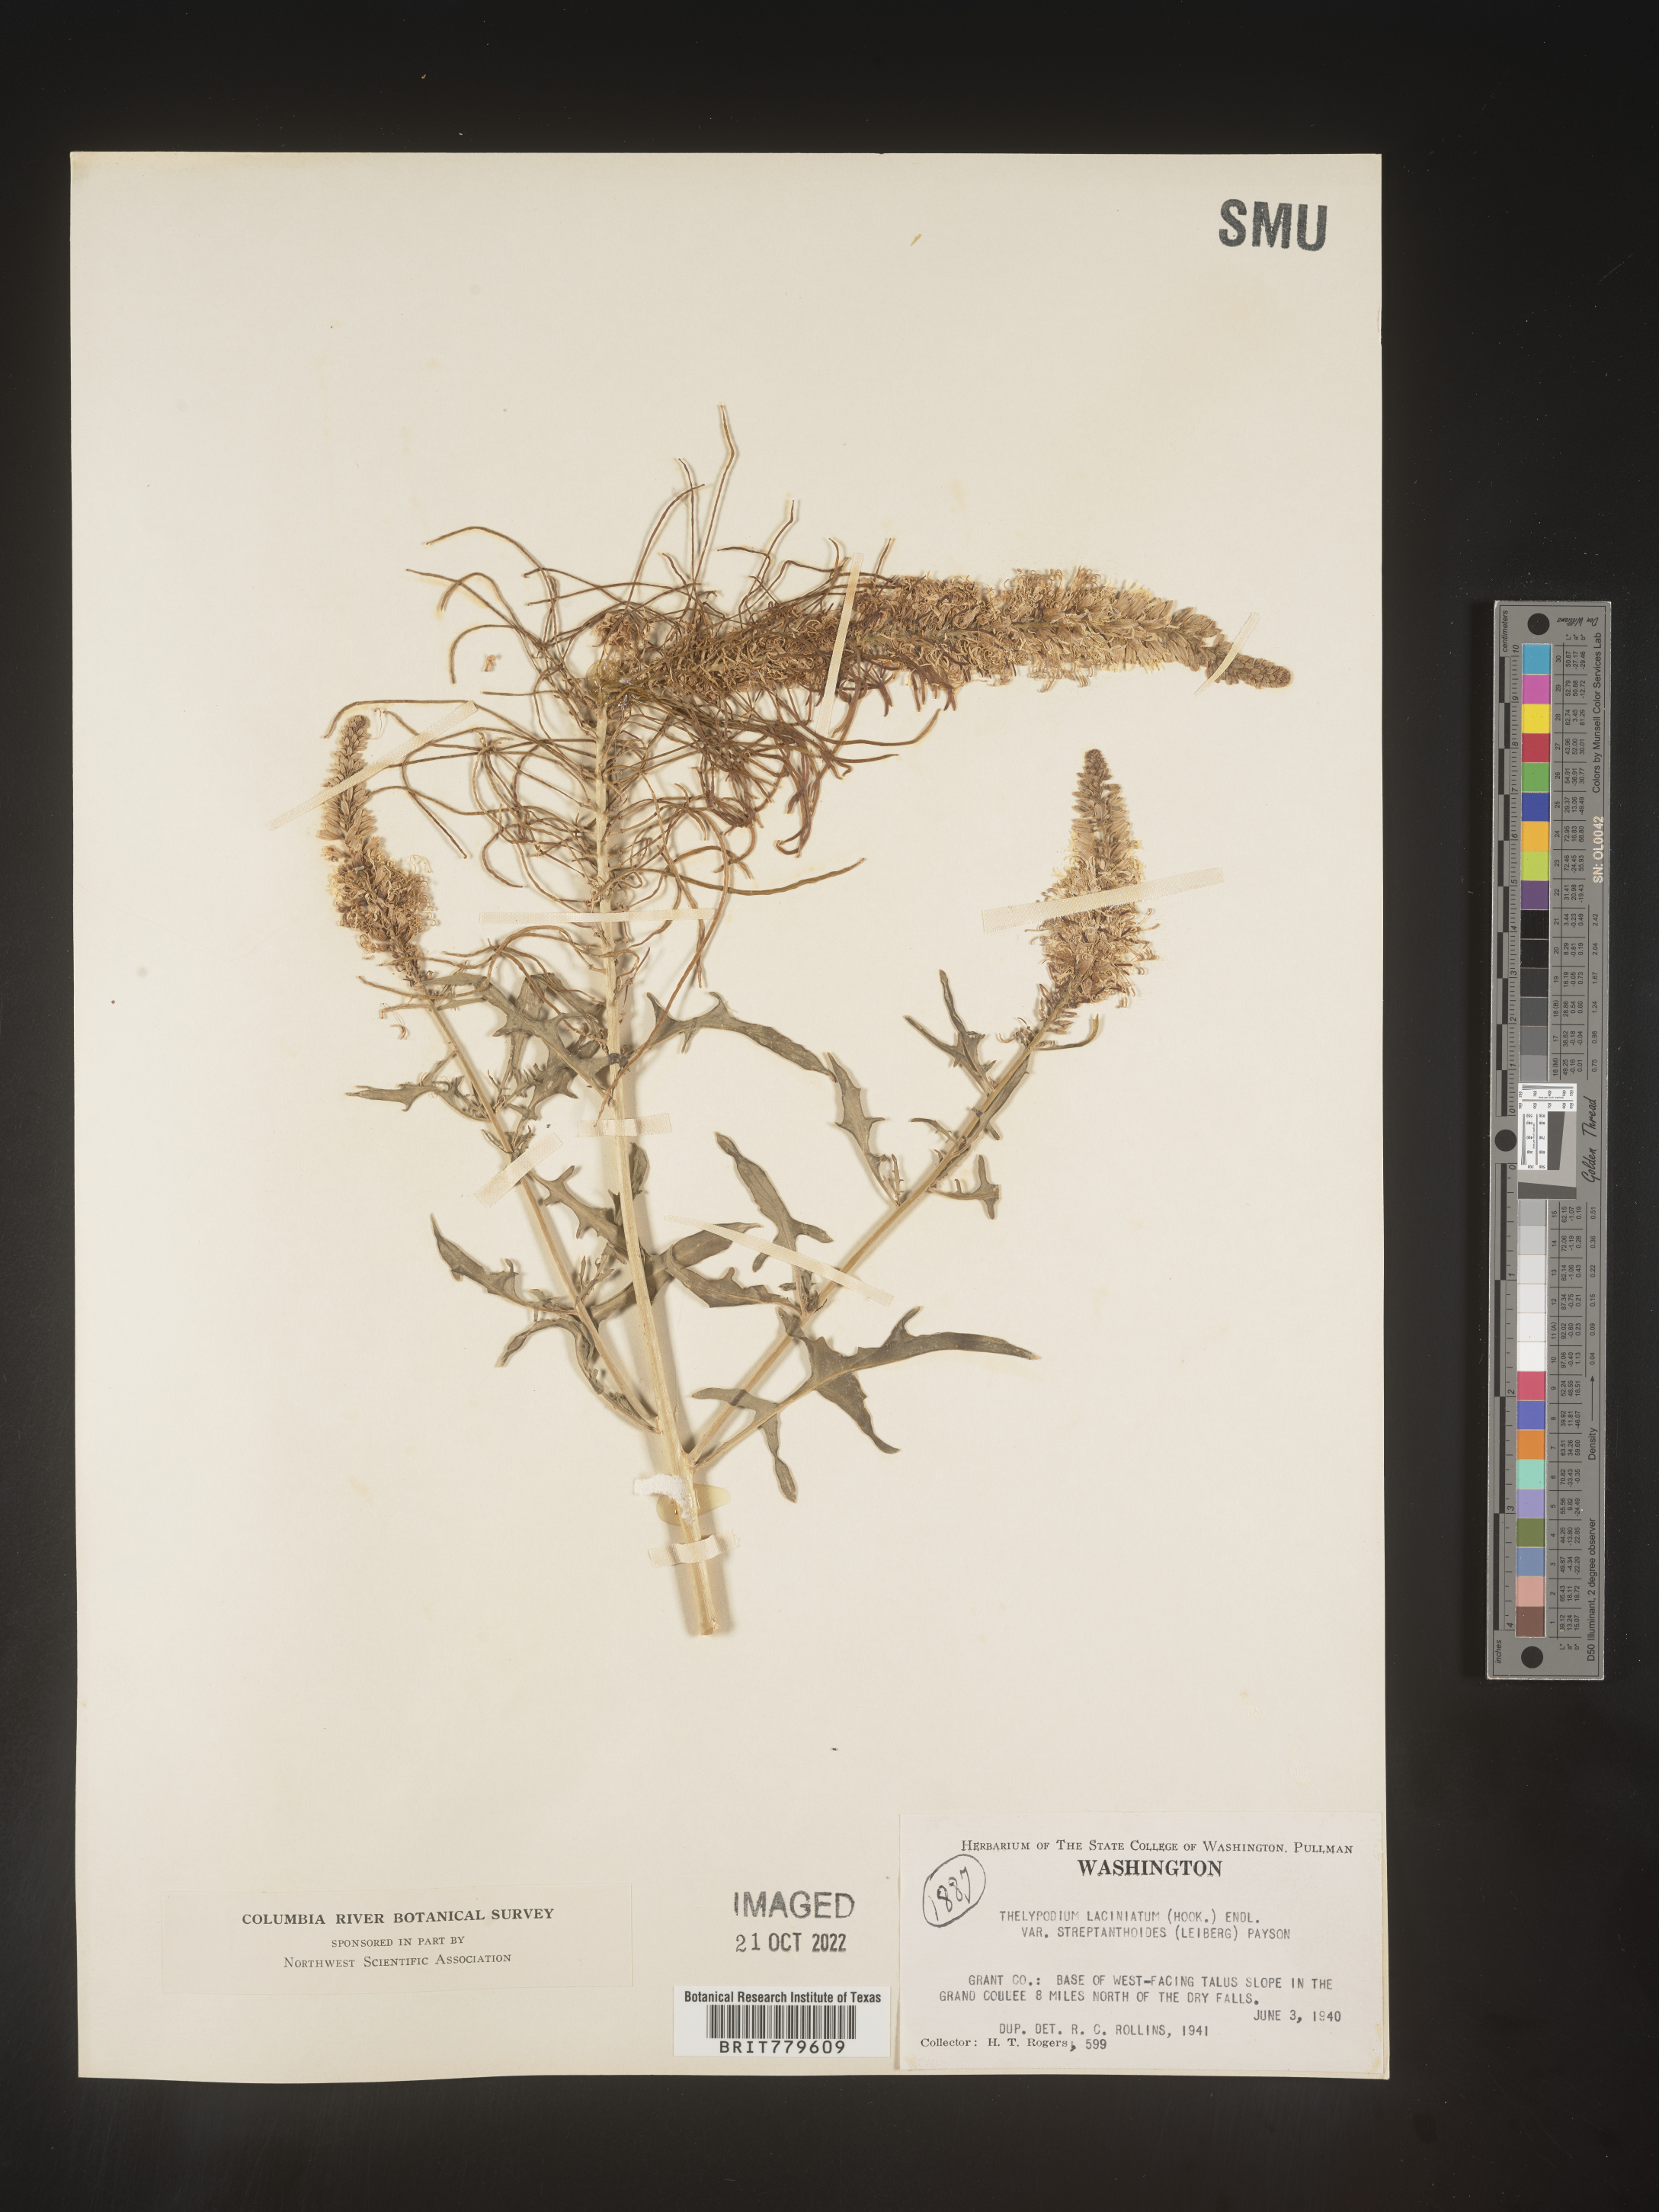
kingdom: Plantae
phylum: Tracheophyta
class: Magnoliopsida
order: Brassicales
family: Brassicaceae
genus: Thelypodium
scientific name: Thelypodium
